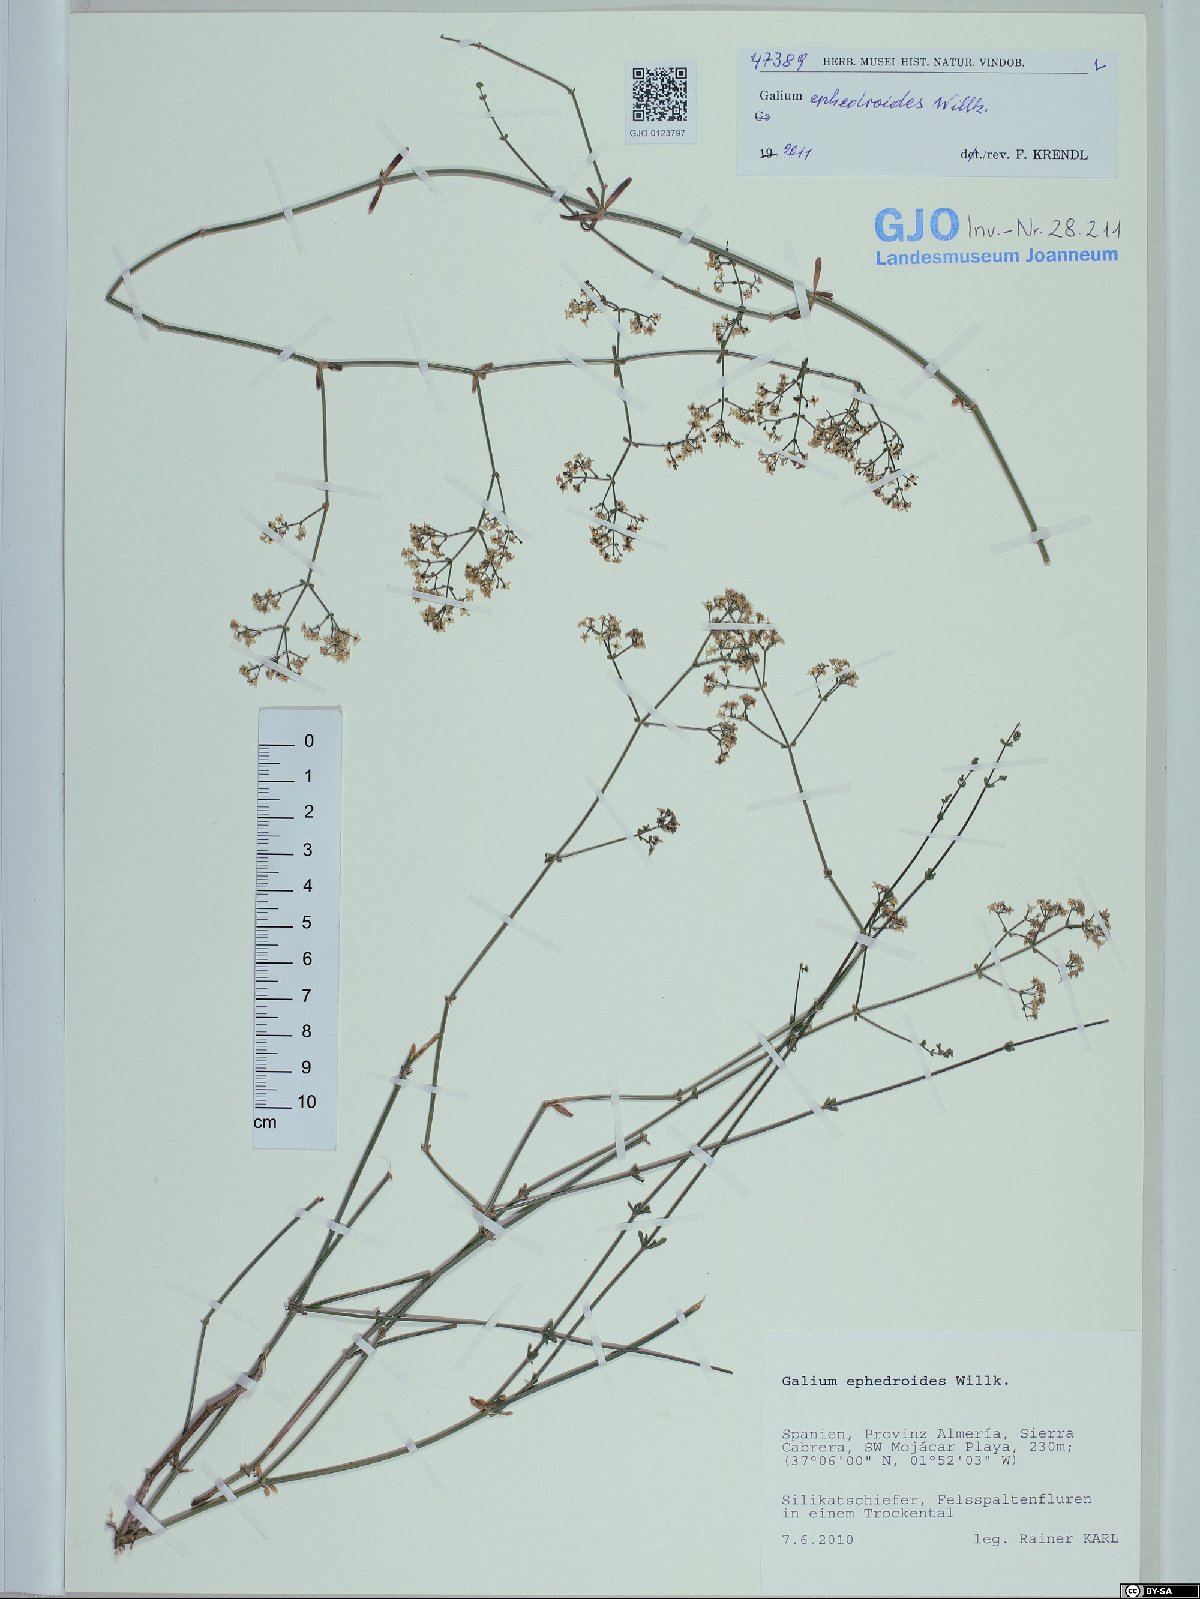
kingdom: Plantae
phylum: Tracheophyta
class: Magnoliopsida
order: Gentianales
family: Rubiaceae
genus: Galium
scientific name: Galium ephedroides
